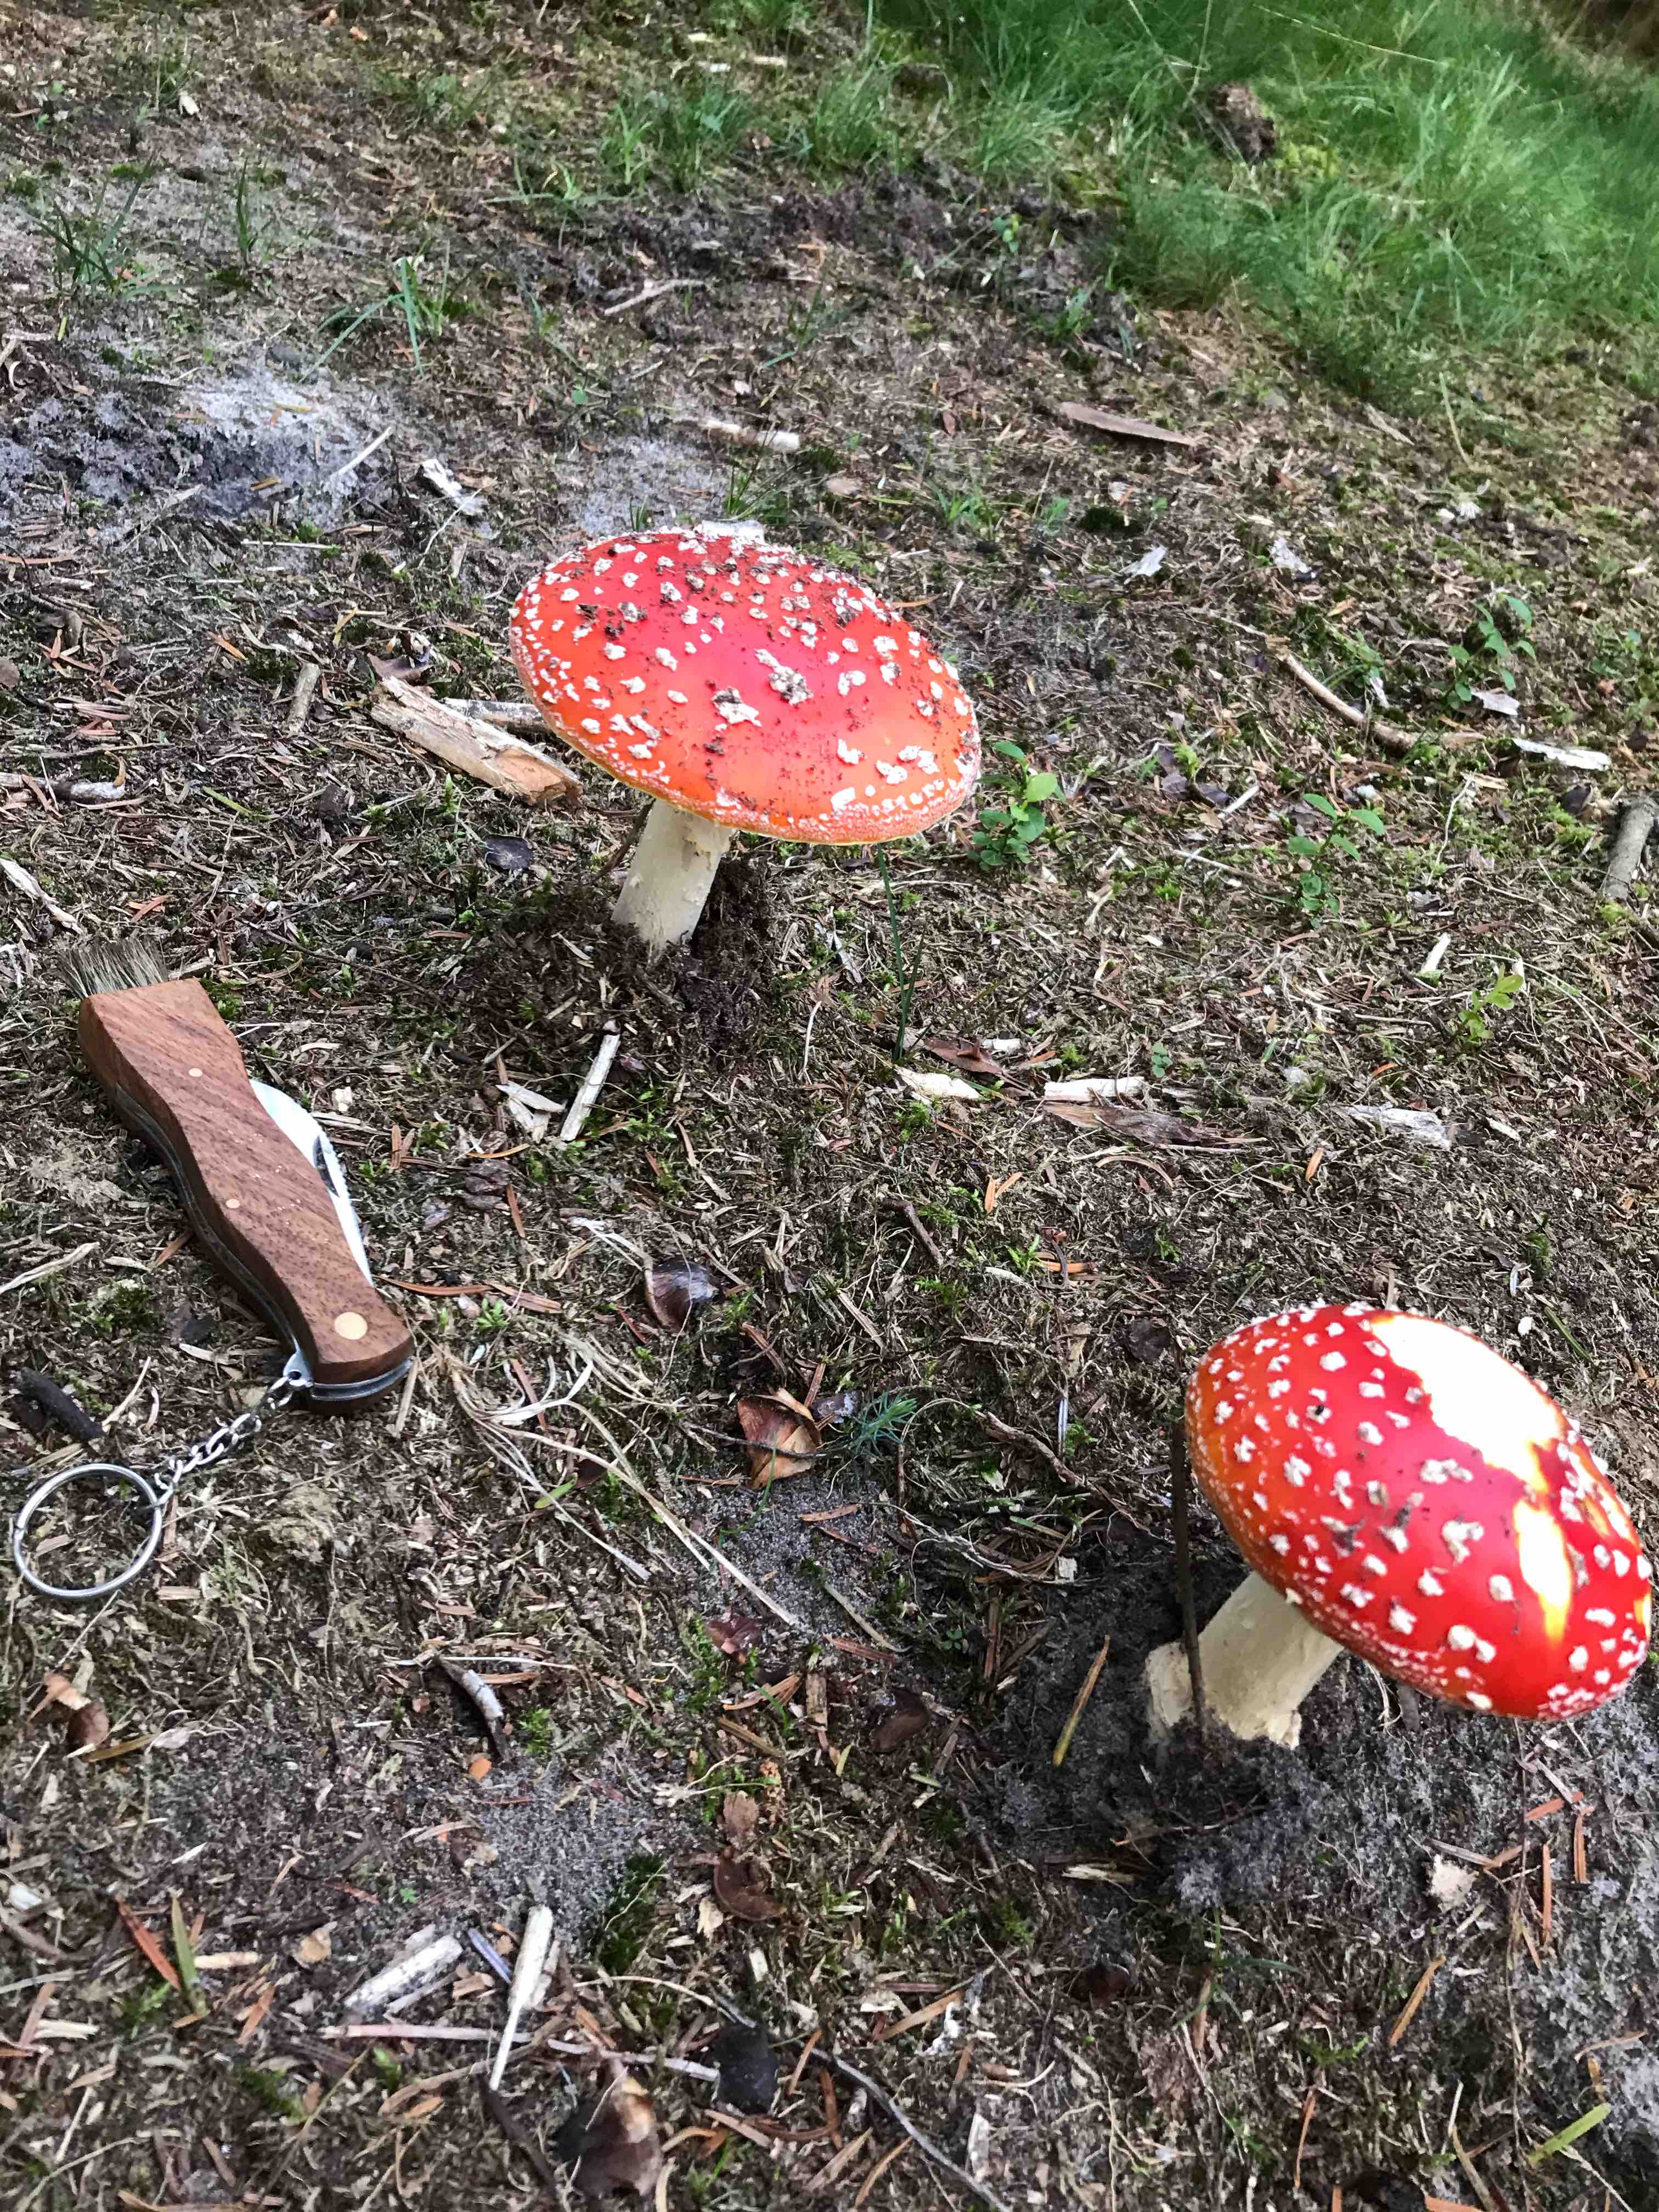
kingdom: Fungi
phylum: Basidiomycota
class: Agaricomycetes
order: Agaricales
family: Amanitaceae
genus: Amanita
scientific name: Amanita muscaria
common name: rød fluesvamp
